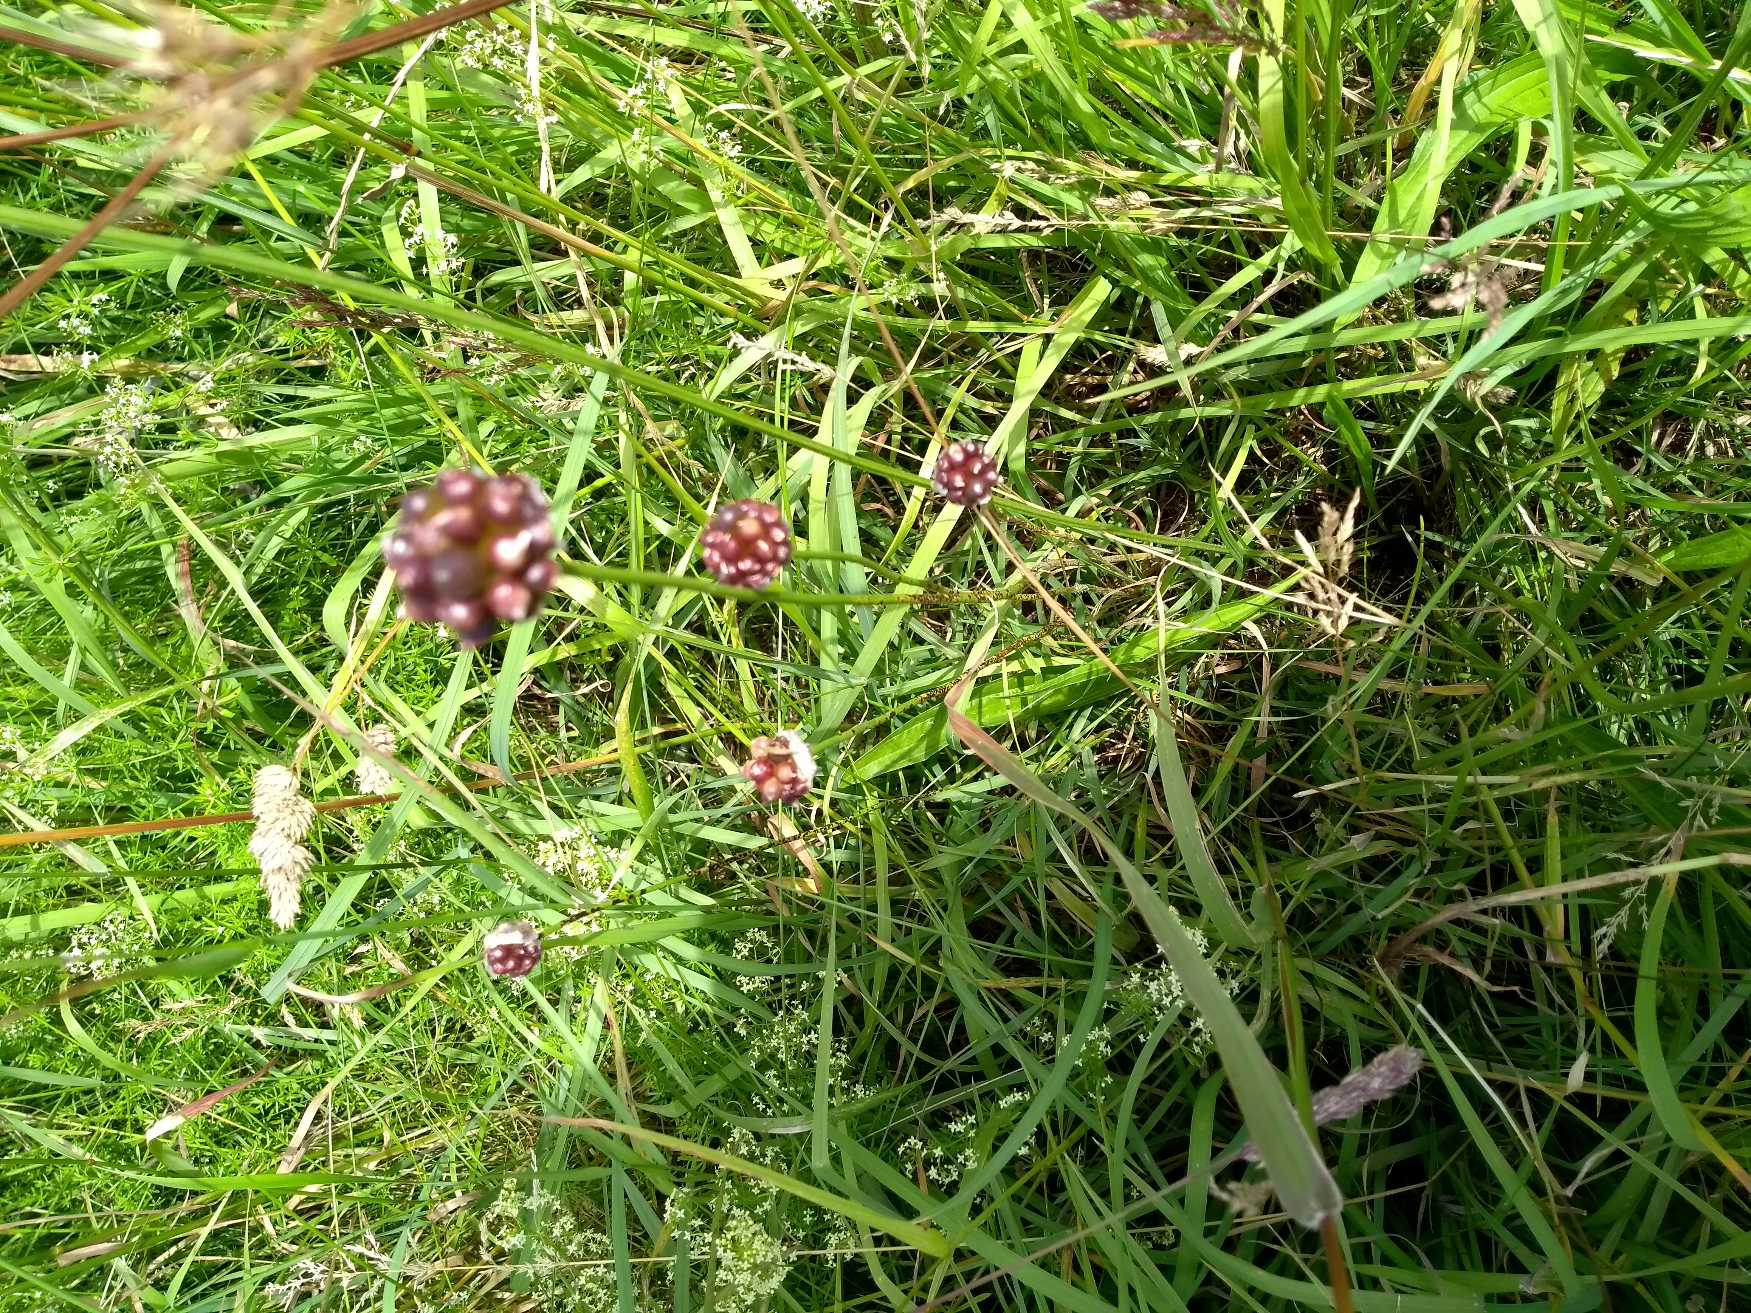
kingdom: Plantae
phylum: Tracheophyta
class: Liliopsida
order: Asparagales
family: Amaryllidaceae
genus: Allium
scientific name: Allium vineale
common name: Sand-løg
